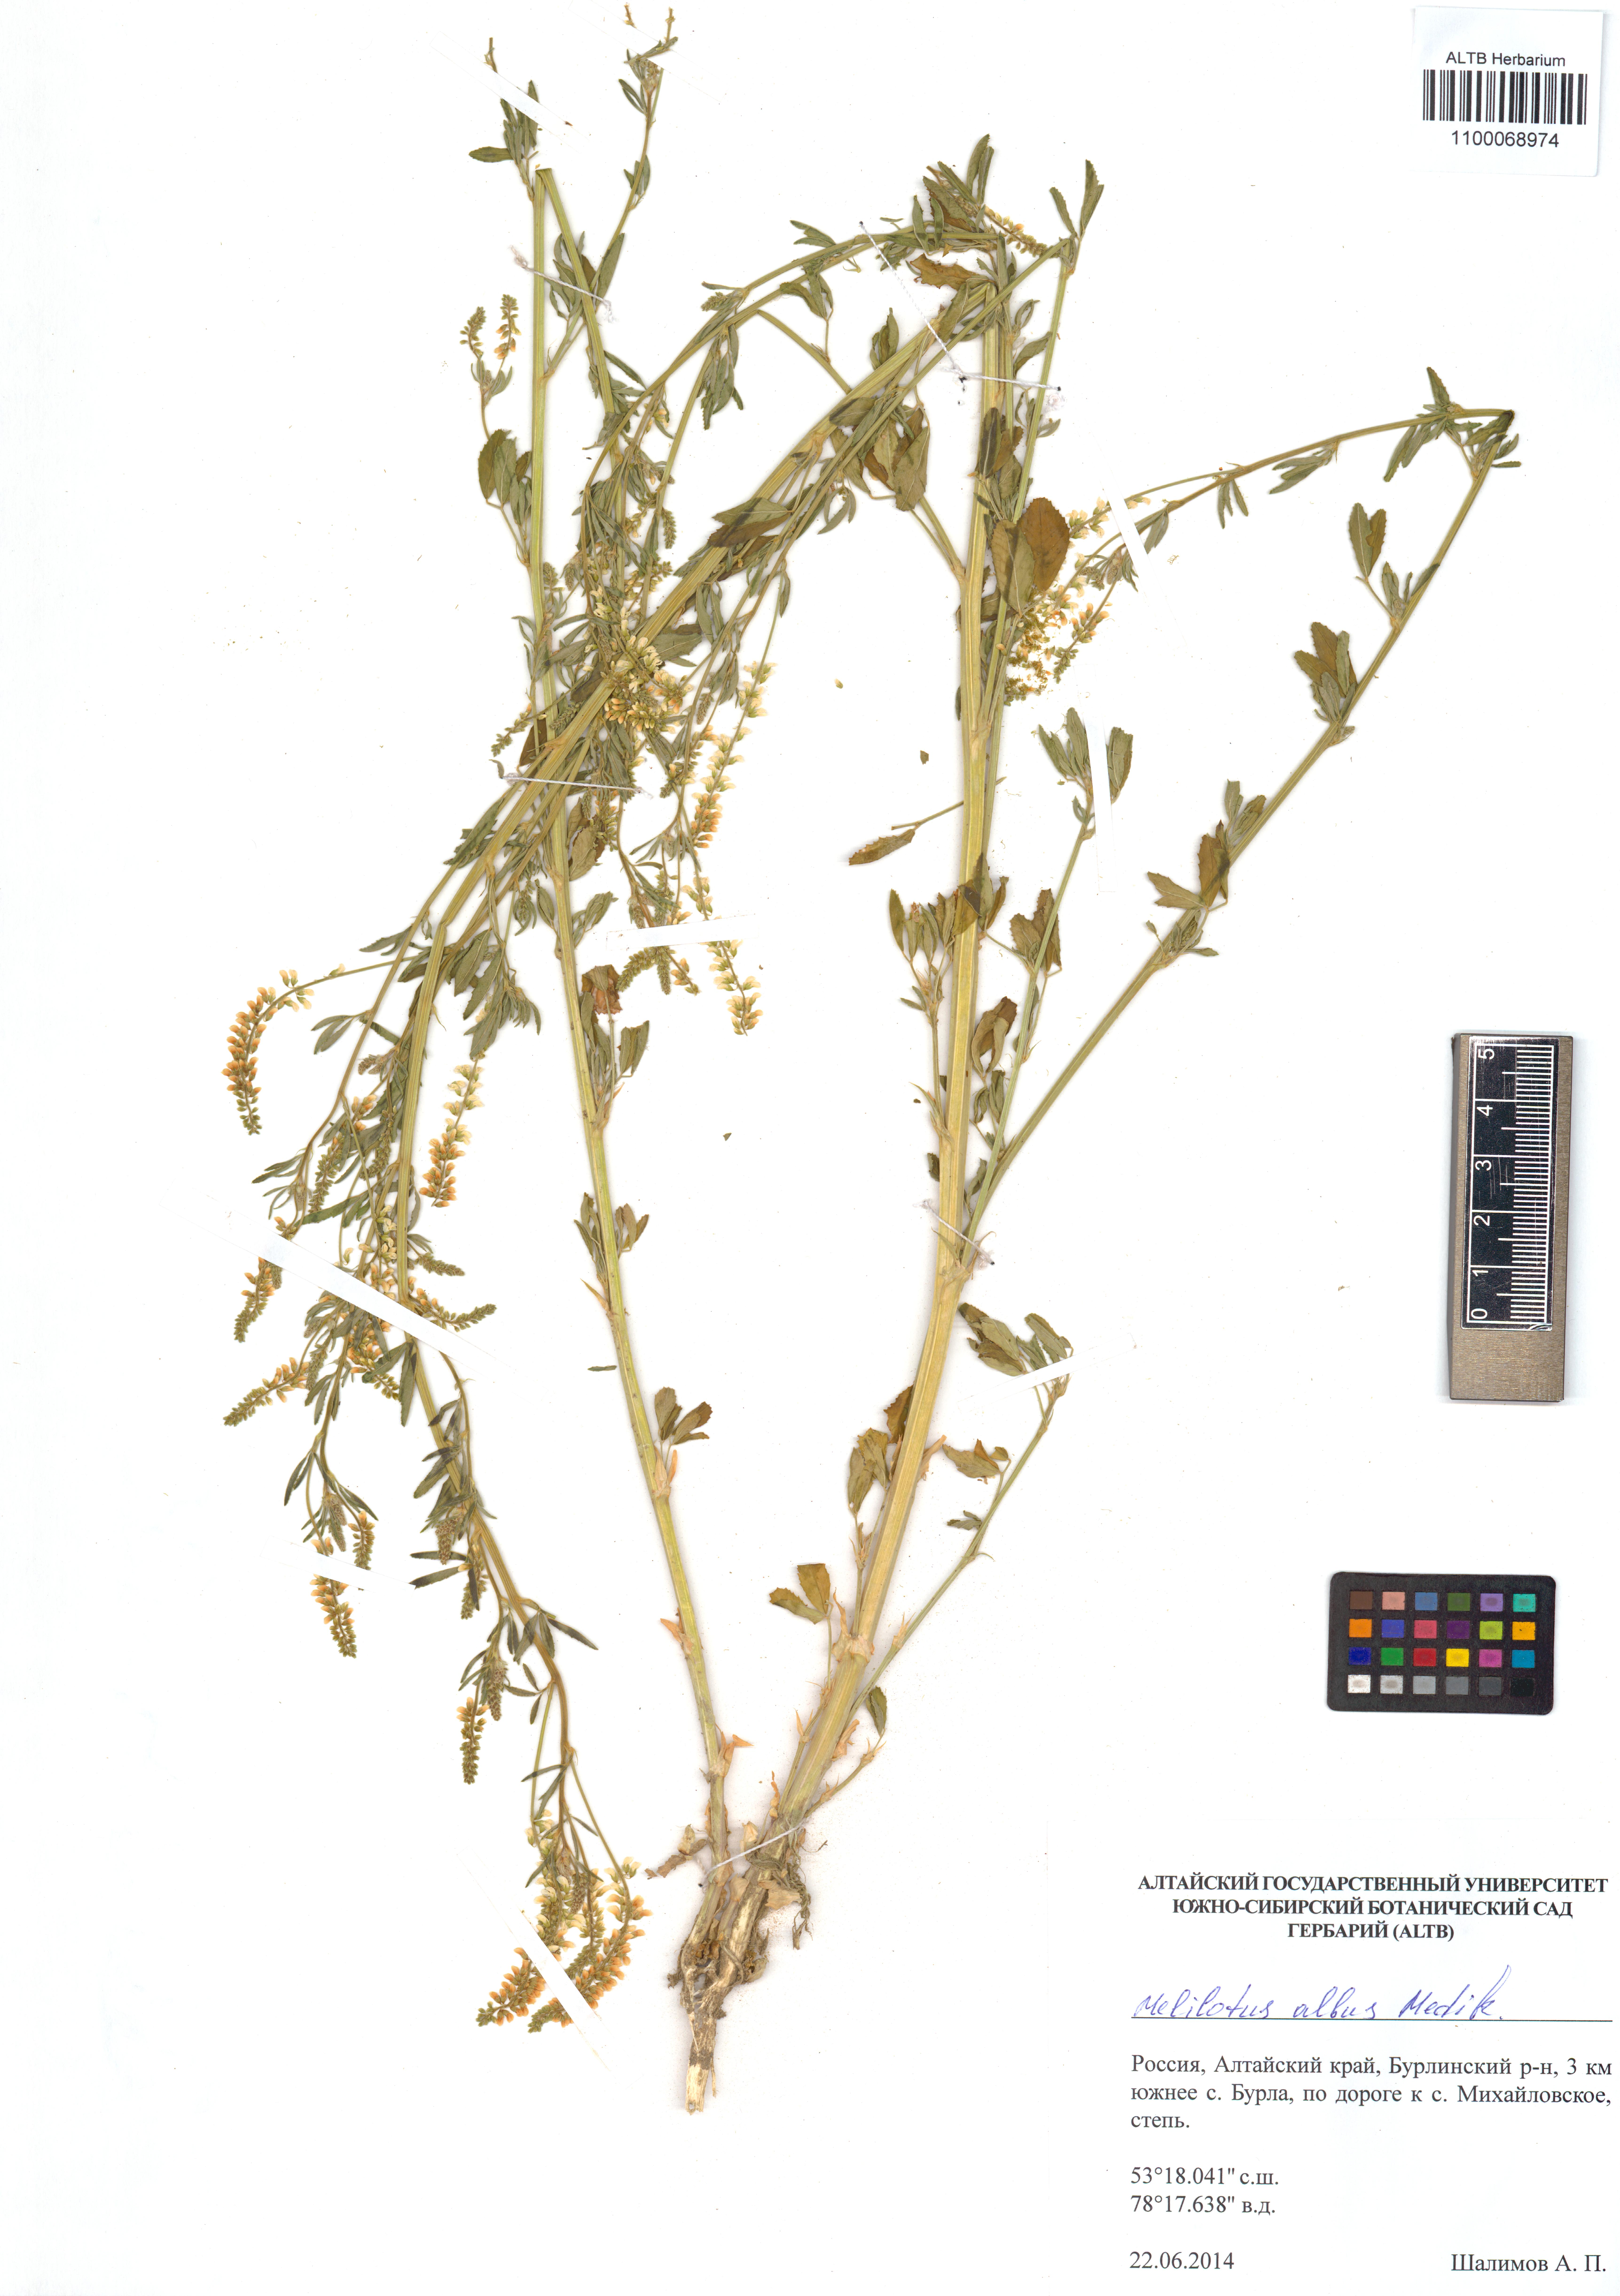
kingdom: Plantae
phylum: Tracheophyta
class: Magnoliopsida
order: Fabales
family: Fabaceae
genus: Melilotus
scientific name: Melilotus albus
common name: White melilot
